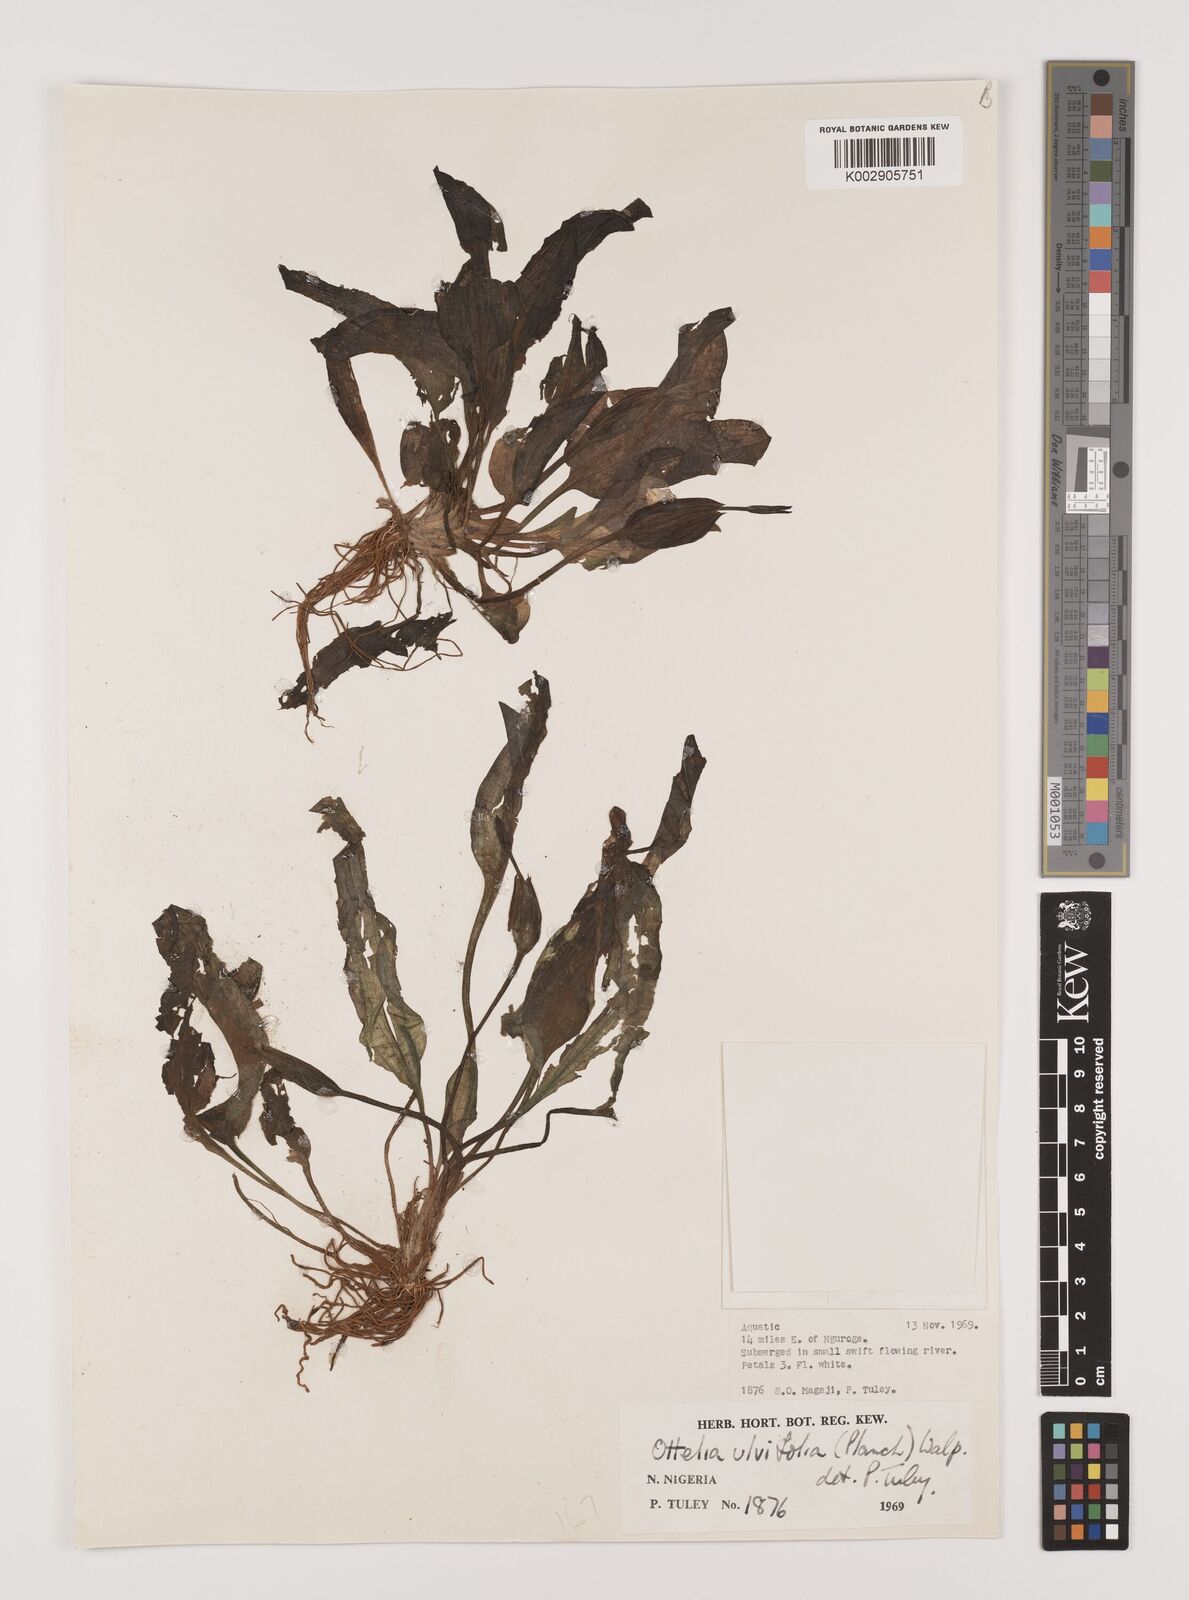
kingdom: Plantae
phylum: Tracheophyta
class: Liliopsida
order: Alismatales
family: Hydrocharitaceae
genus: Ottelia
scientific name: Ottelia ulvifolia
